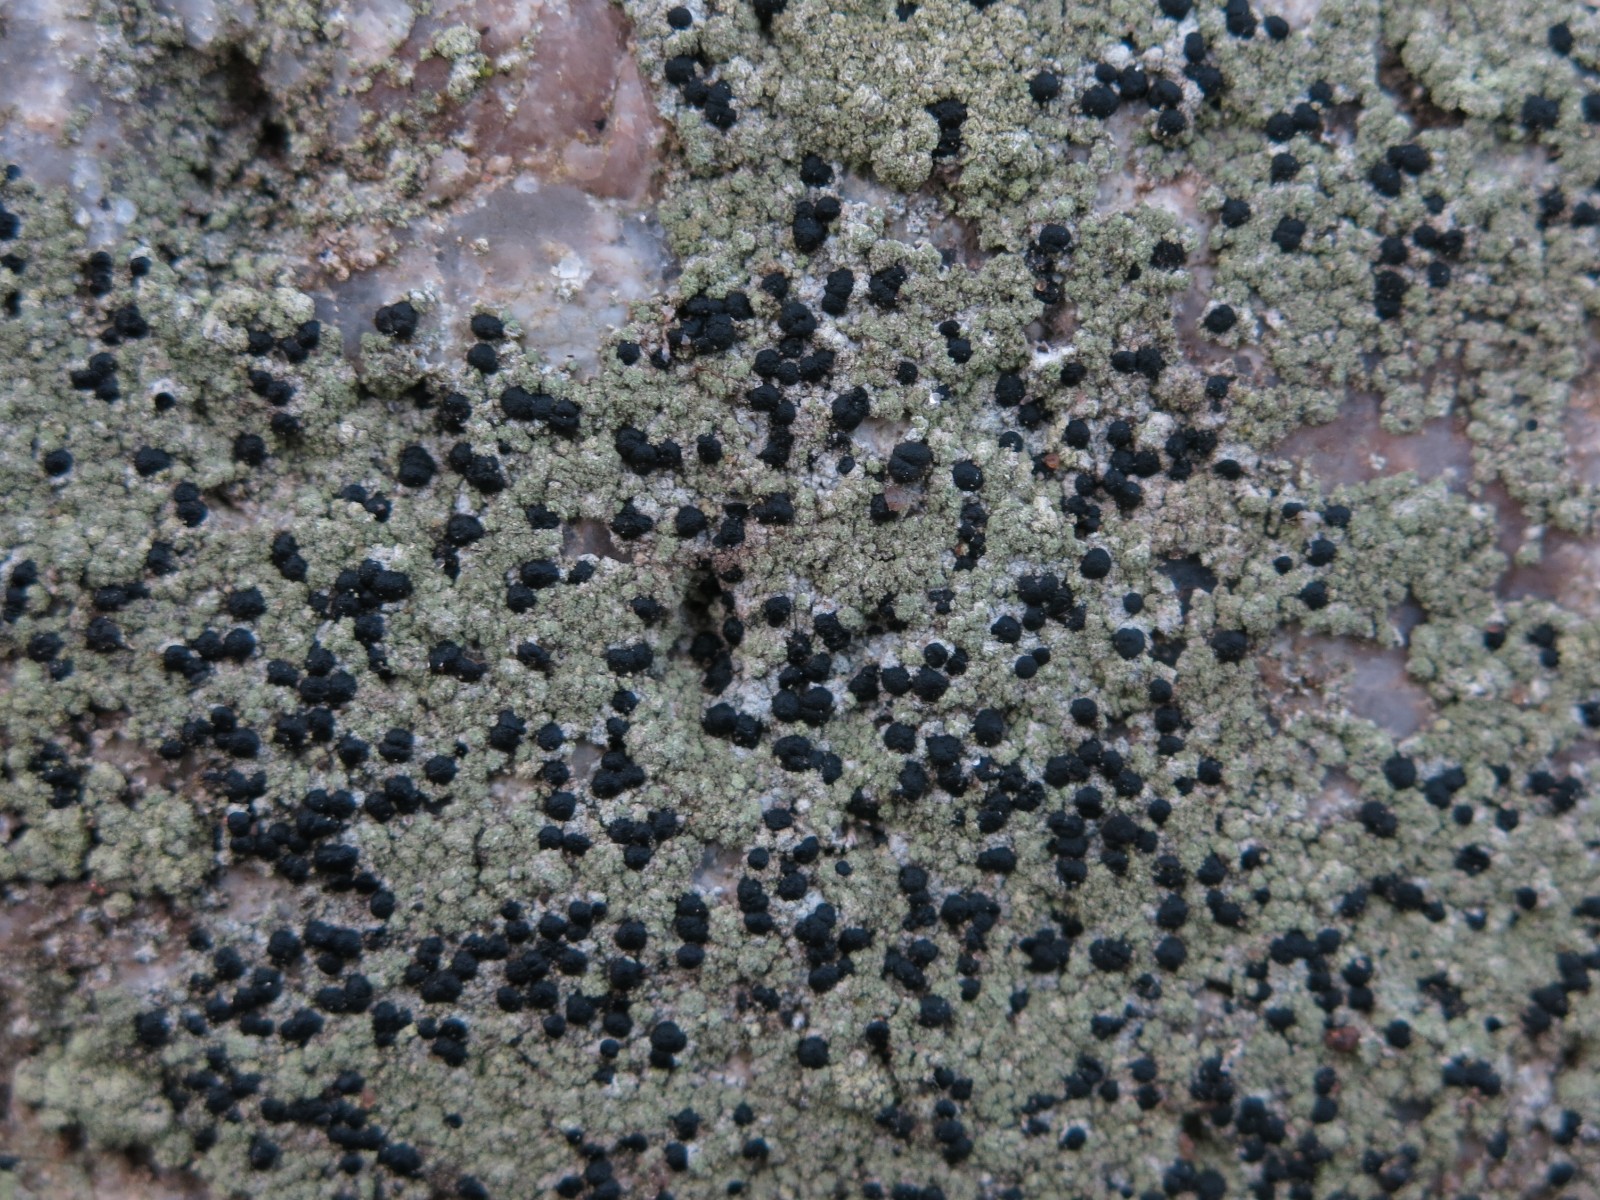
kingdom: Fungi
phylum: Ascomycota
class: Lecanoromycetes
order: Lecanorales
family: Lecanoraceae
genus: Lecidella
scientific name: Lecidella scabra
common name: skurvet skivelav
